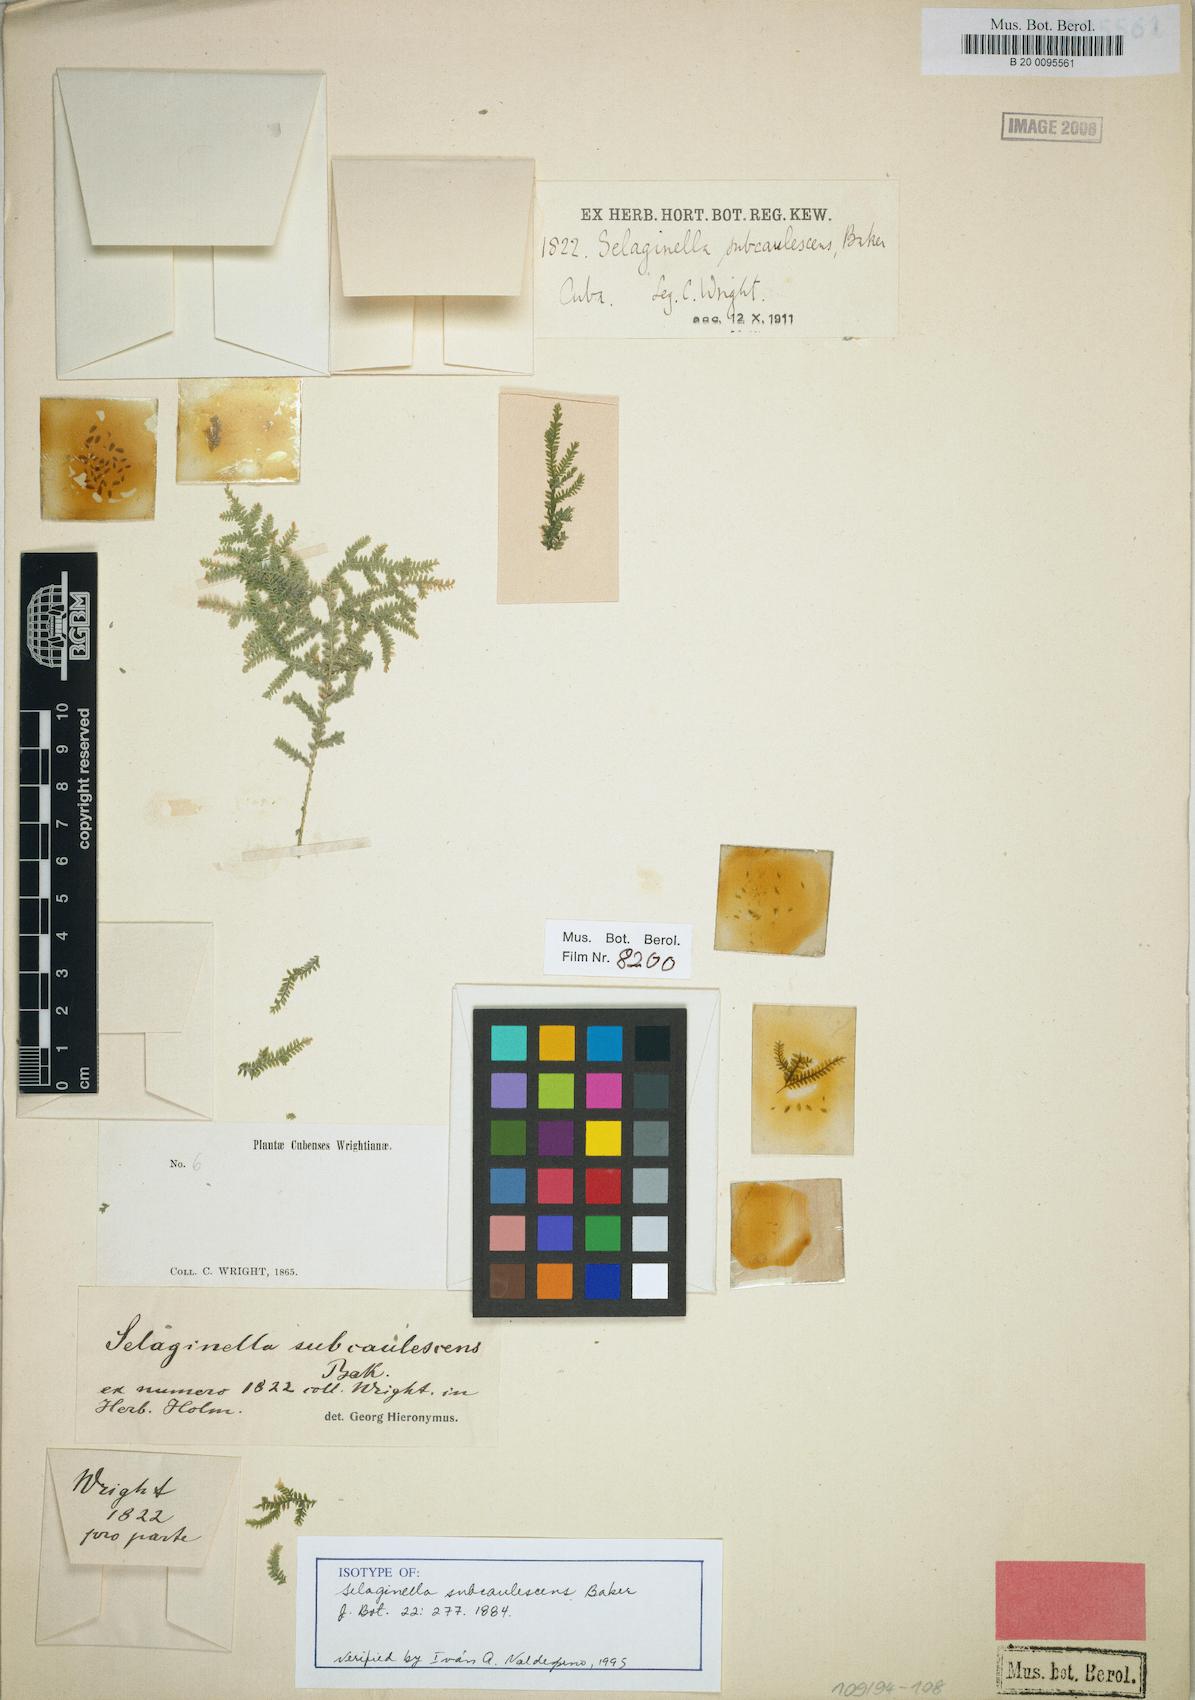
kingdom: Plantae
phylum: Tracheophyta
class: Lycopodiopsida
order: Selaginellales
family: Selaginellaceae
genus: Selaginella
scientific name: Selaginella tenella
